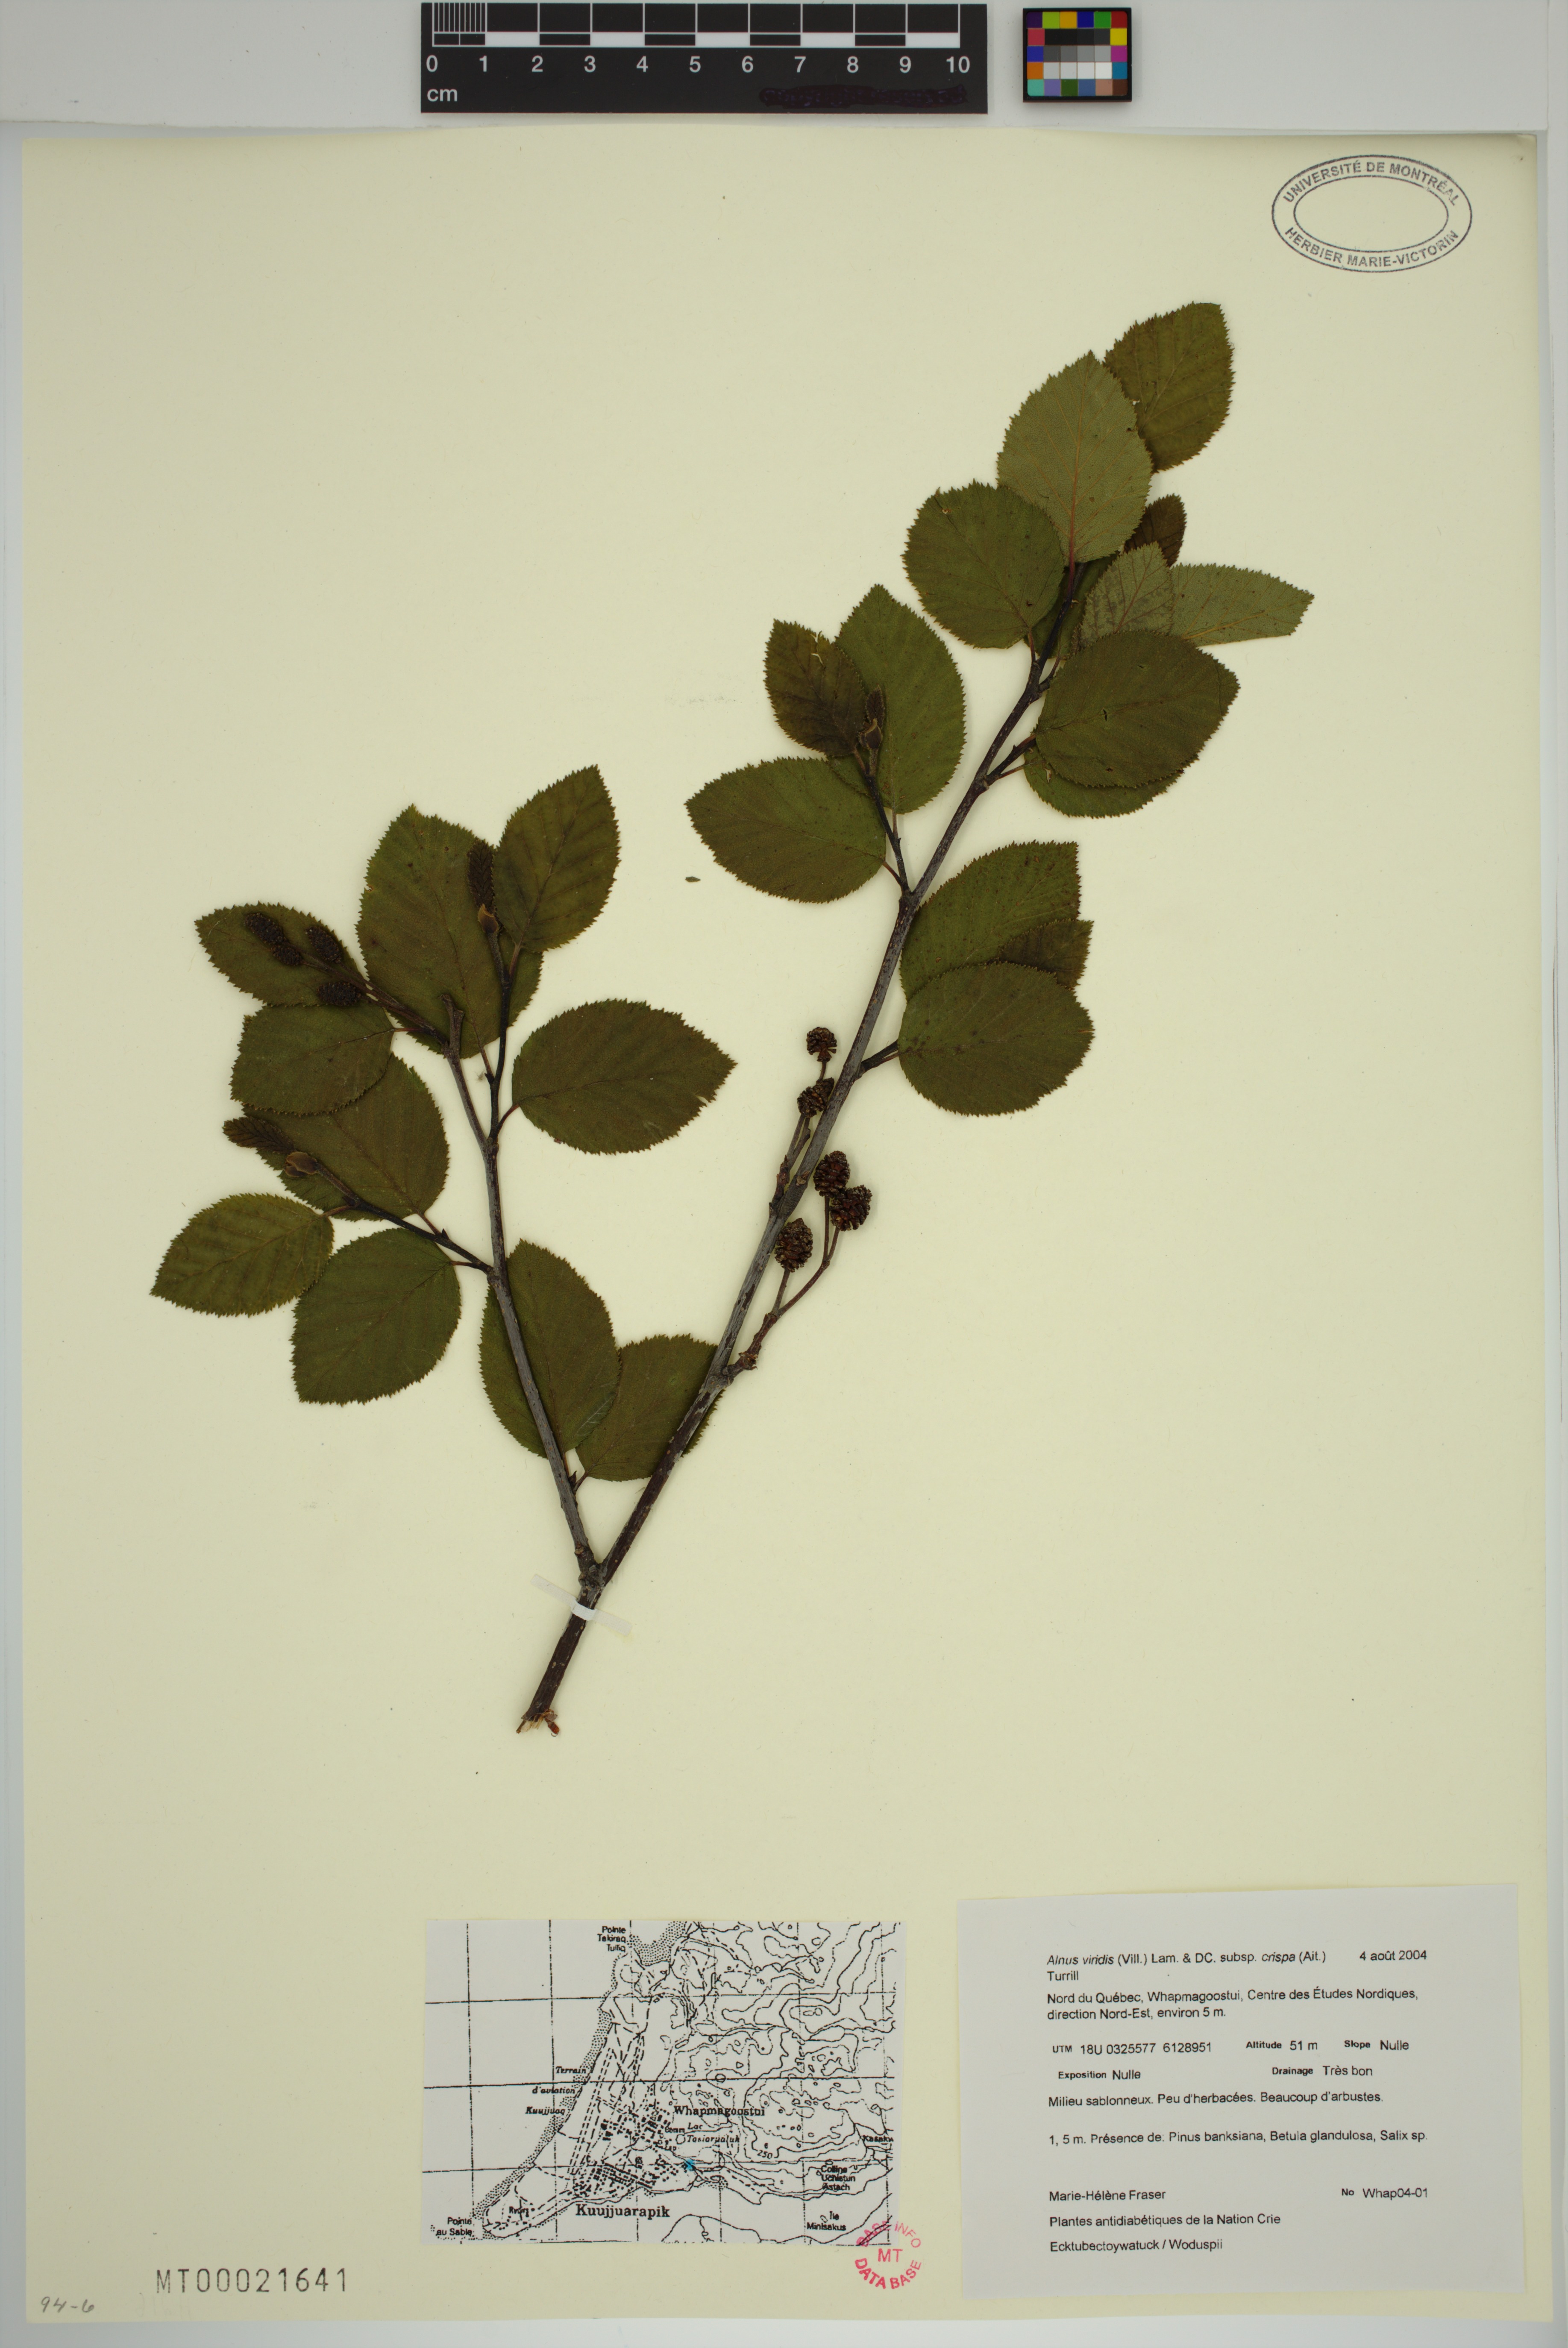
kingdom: Plantae
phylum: Tracheophyta
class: Magnoliopsida
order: Fagales
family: Betulaceae
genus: Alnus
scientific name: Alnus alnobetula
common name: Green alder
